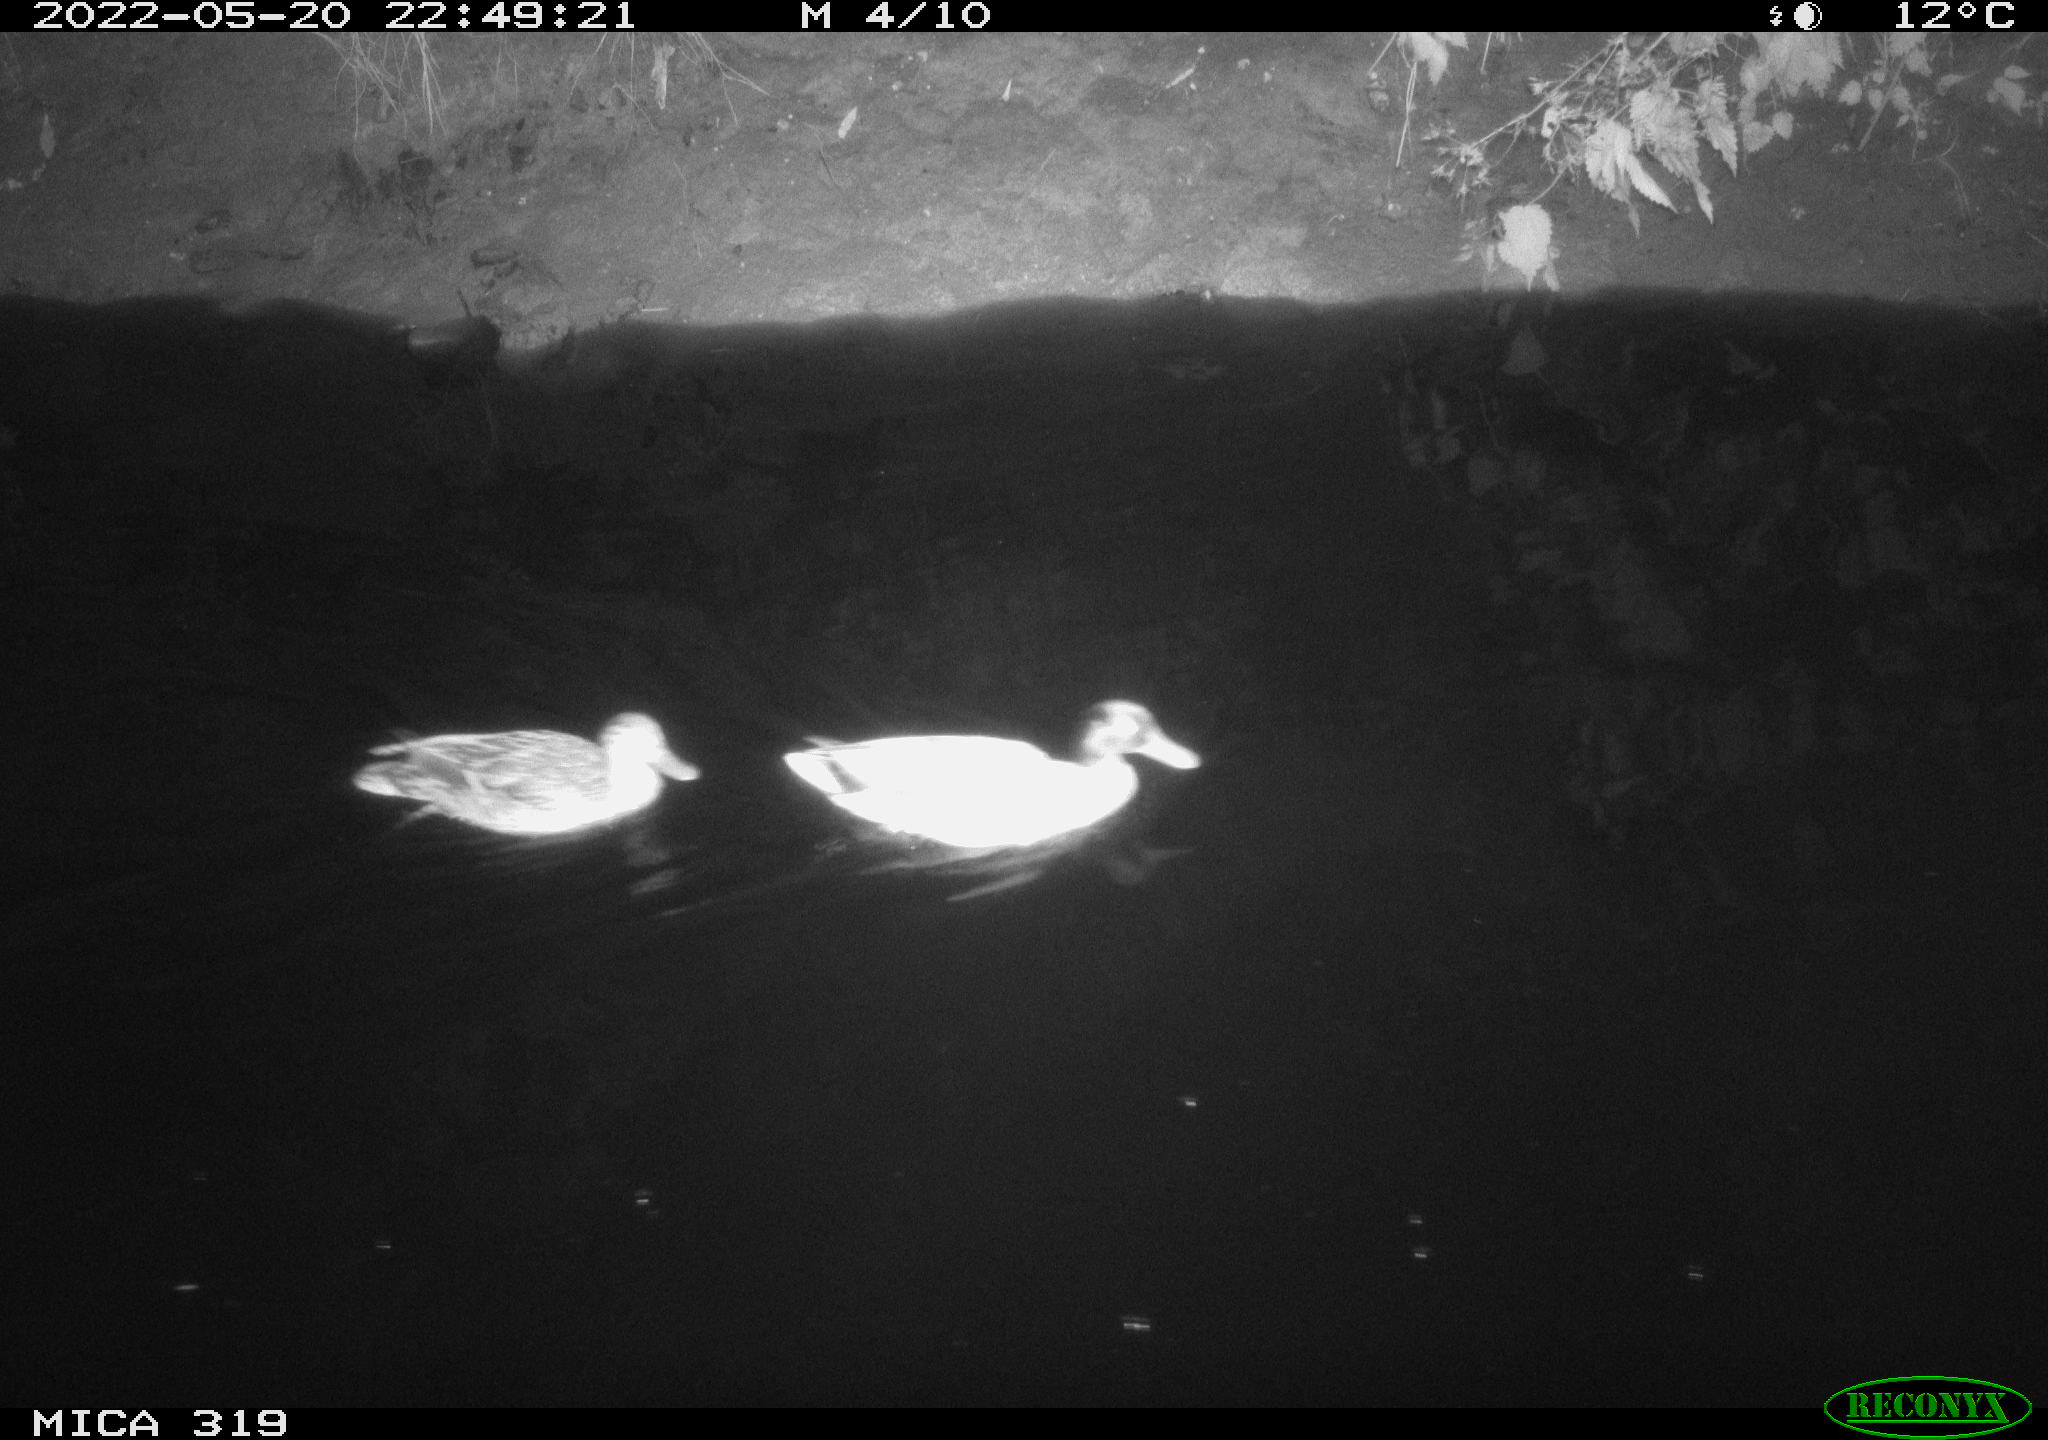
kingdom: Animalia
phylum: Chordata
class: Aves
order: Anseriformes
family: Anatidae
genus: Anas
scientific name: Anas
